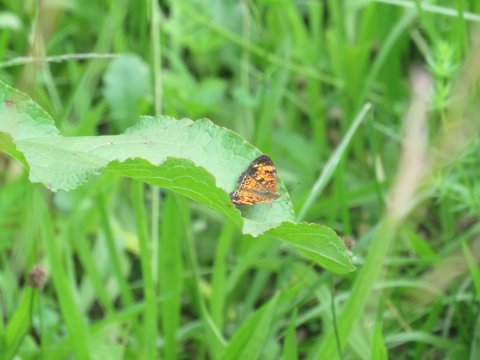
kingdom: Animalia
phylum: Arthropoda
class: Insecta
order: Lepidoptera
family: Nymphalidae
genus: Phyciodes
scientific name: Phyciodes tharos
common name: Pearl Crescent
